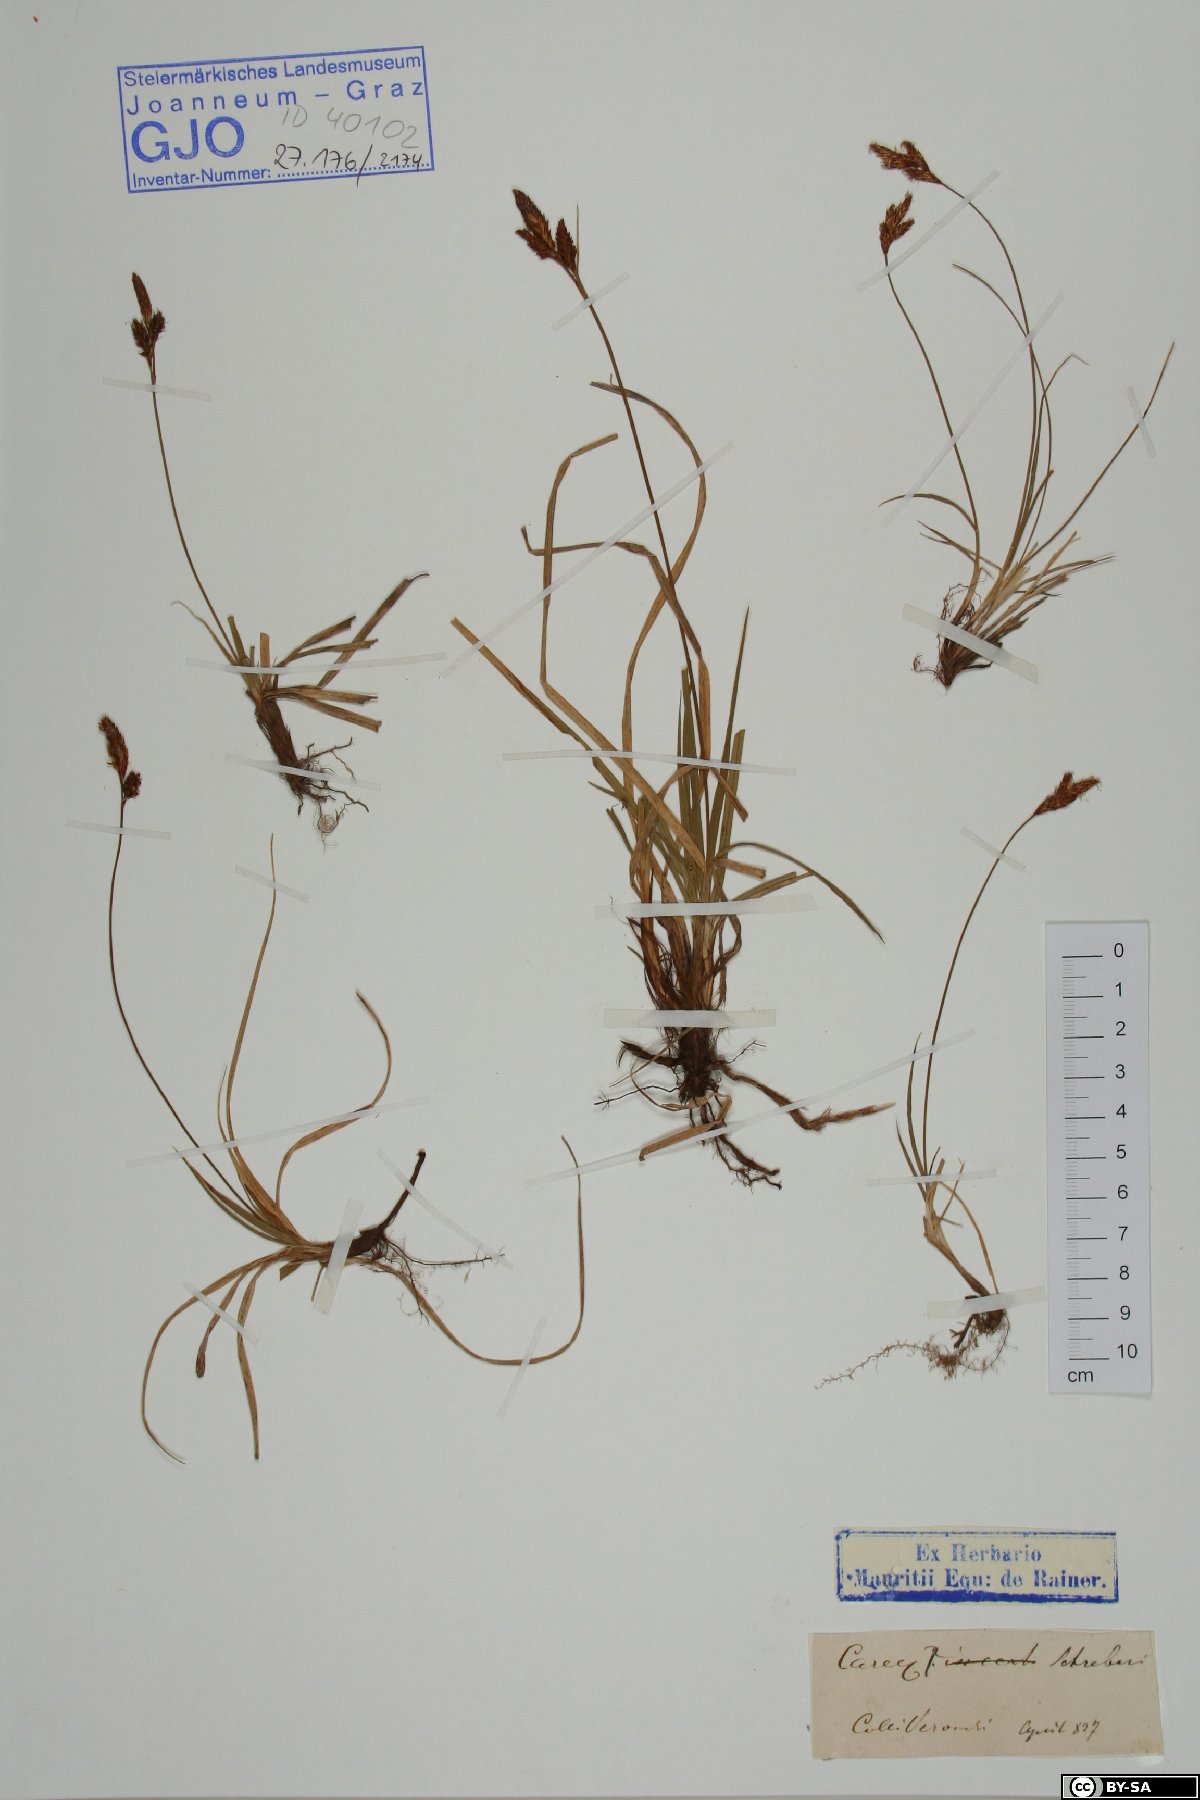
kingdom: Plantae
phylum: Tracheophyta
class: Liliopsida
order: Poales
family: Cyperaceae
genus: Carex
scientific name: Carex praecox
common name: Early sedge
